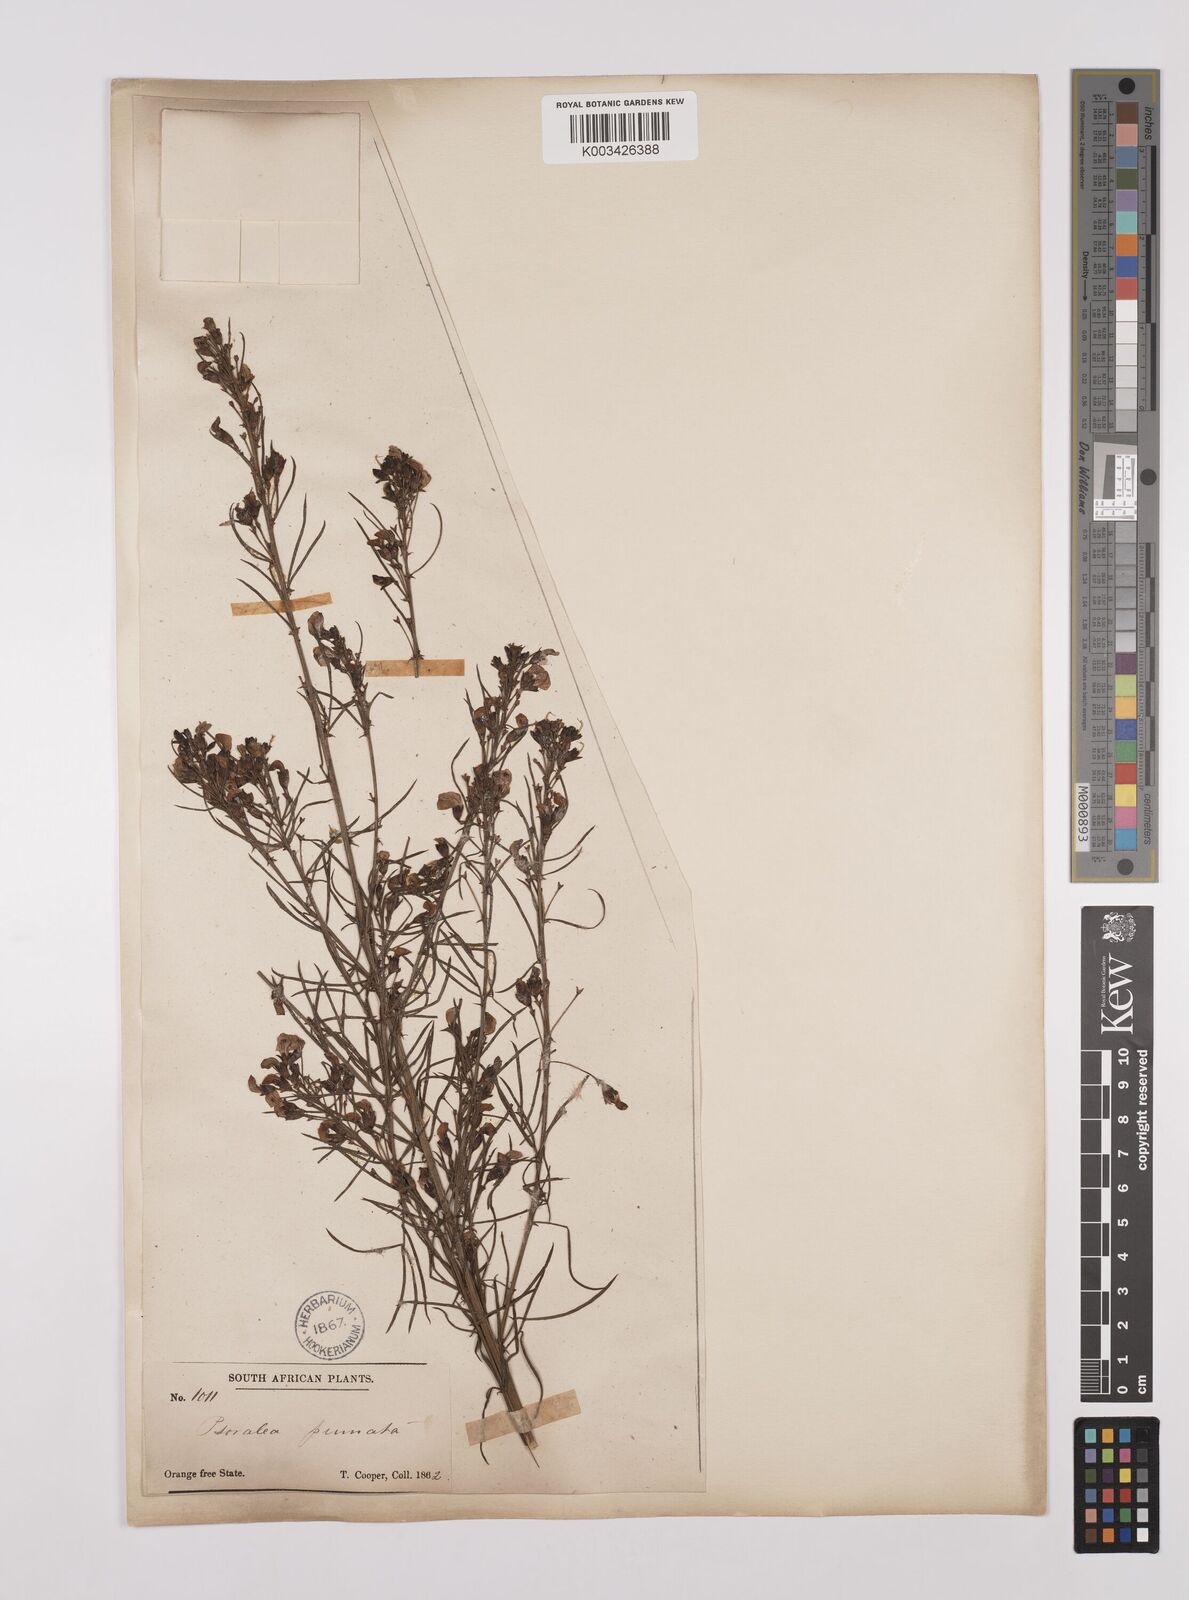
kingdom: Plantae
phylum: Tracheophyta
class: Magnoliopsida
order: Fabales
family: Fabaceae
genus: Psoralea
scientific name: Psoralea rhizotoma
